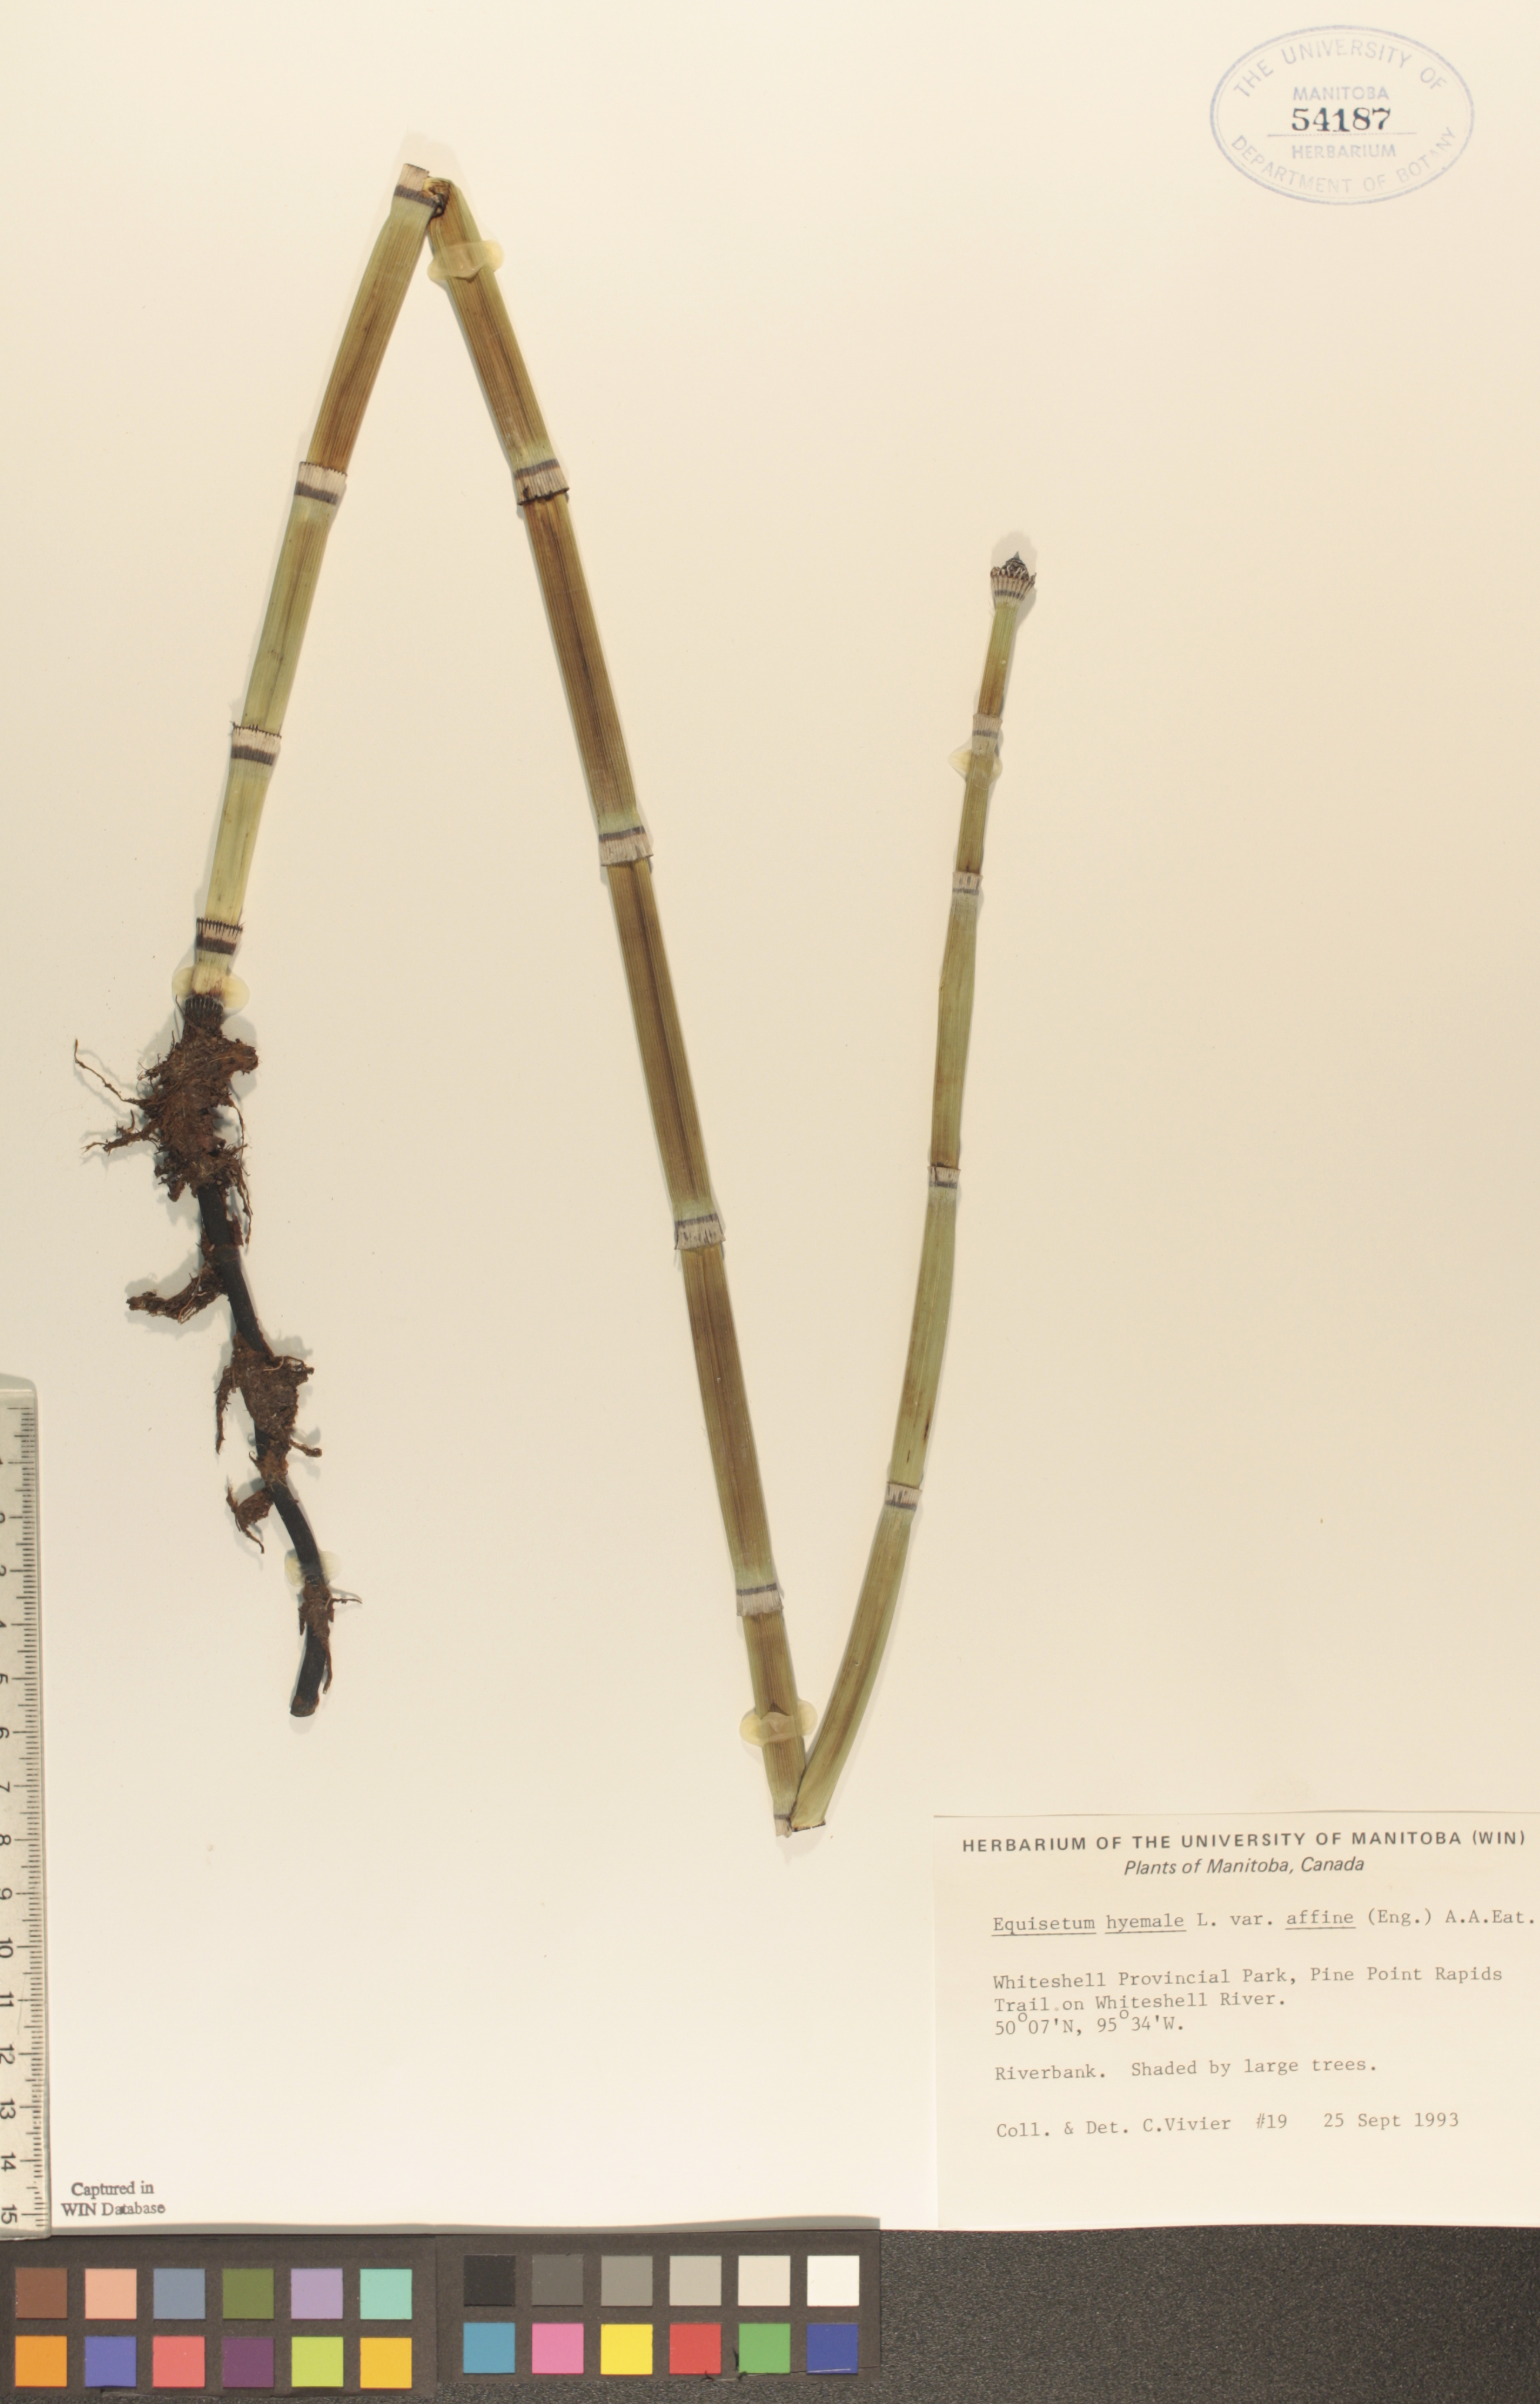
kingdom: Plantae
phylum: Tracheophyta
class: Polypodiopsida
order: Equisetales
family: Equisetaceae
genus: Equisetum
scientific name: Equisetum praealtum
